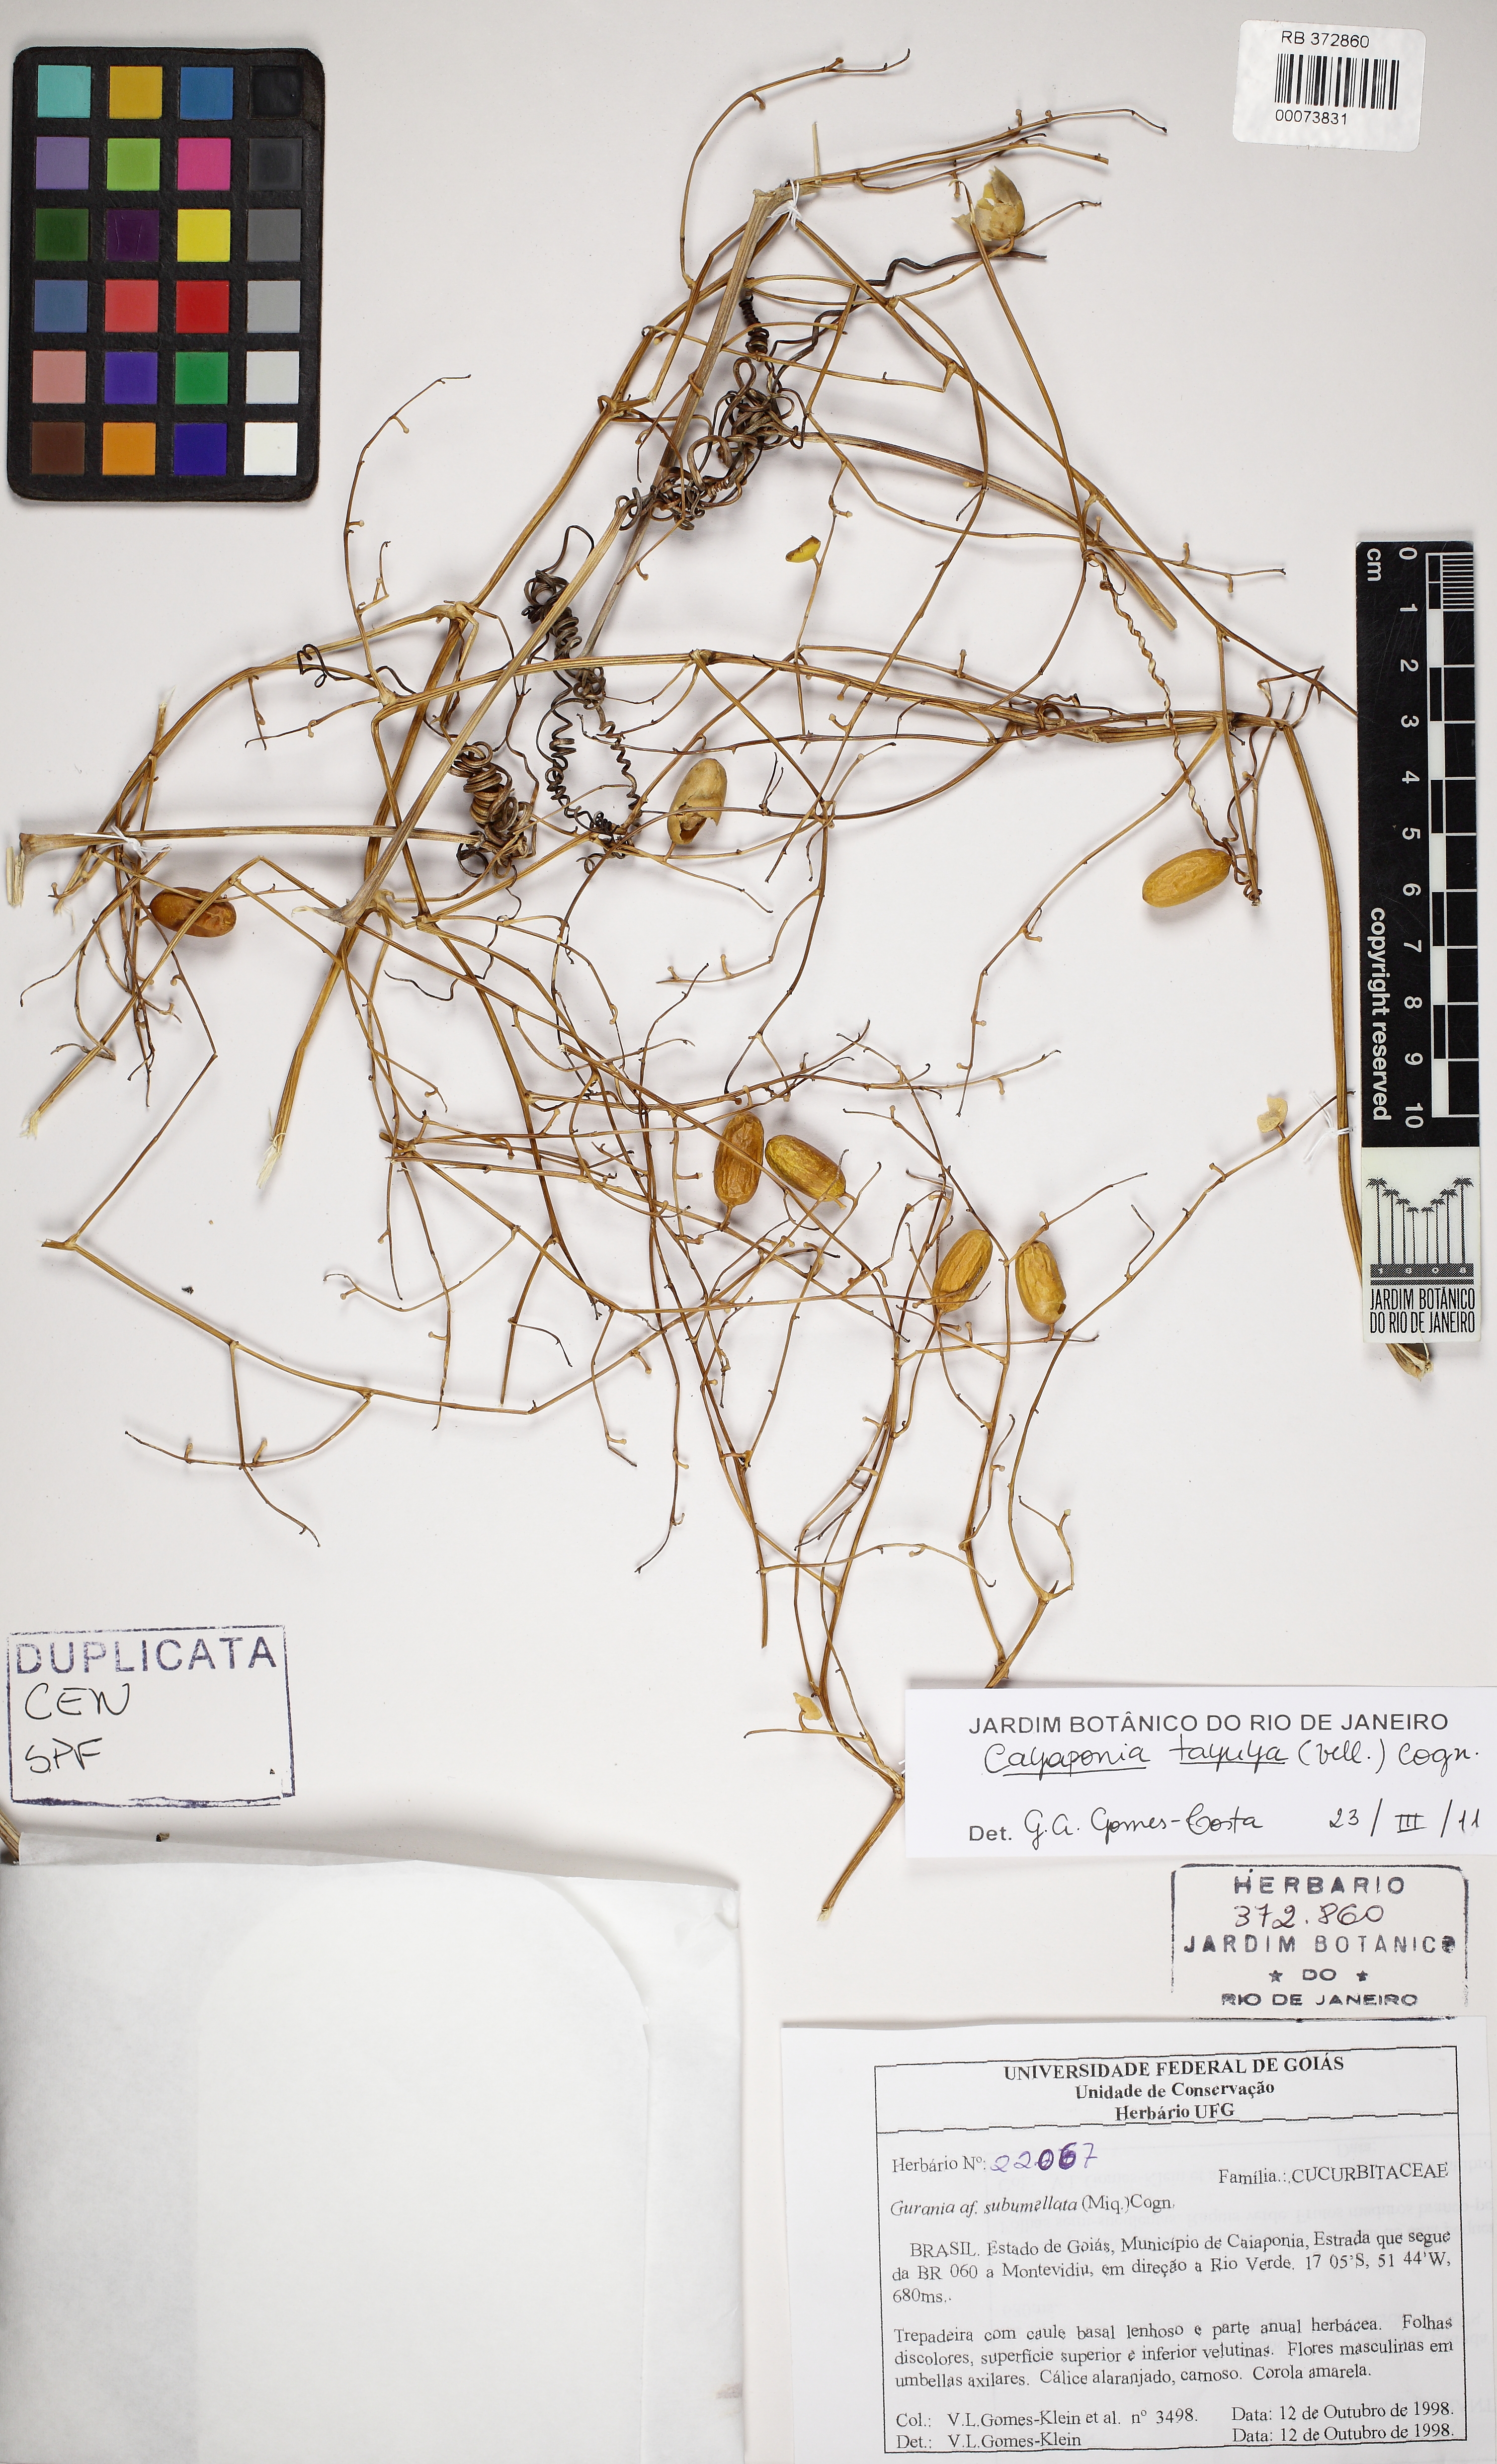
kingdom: Plantae
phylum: Tracheophyta
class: Magnoliopsida
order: Cucurbitales
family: Cucurbitaceae
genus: Cayaponia
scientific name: Cayaponia tayuya
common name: Tayuya
